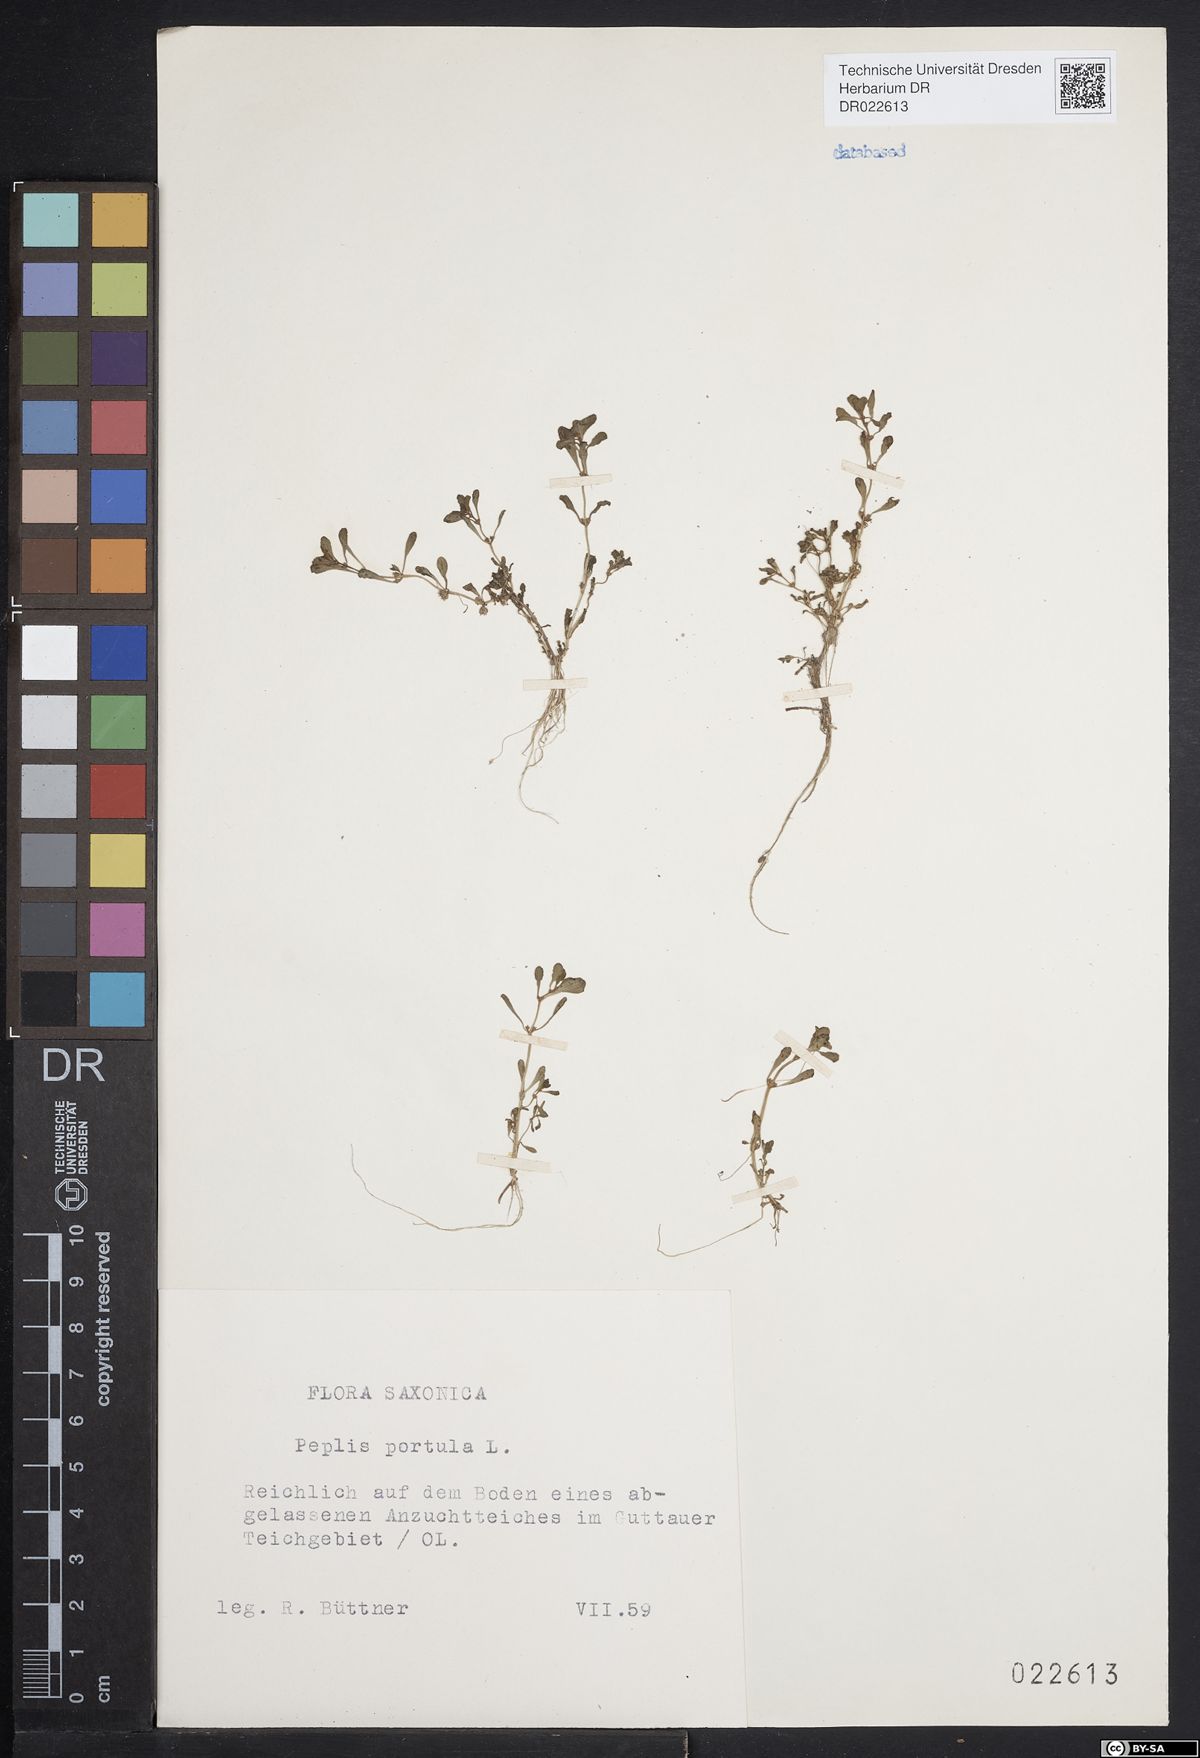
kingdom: Plantae
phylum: Tracheophyta
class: Magnoliopsida
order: Myrtales
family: Lythraceae
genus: Lythrum
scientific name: Lythrum portula
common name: Water purslane
